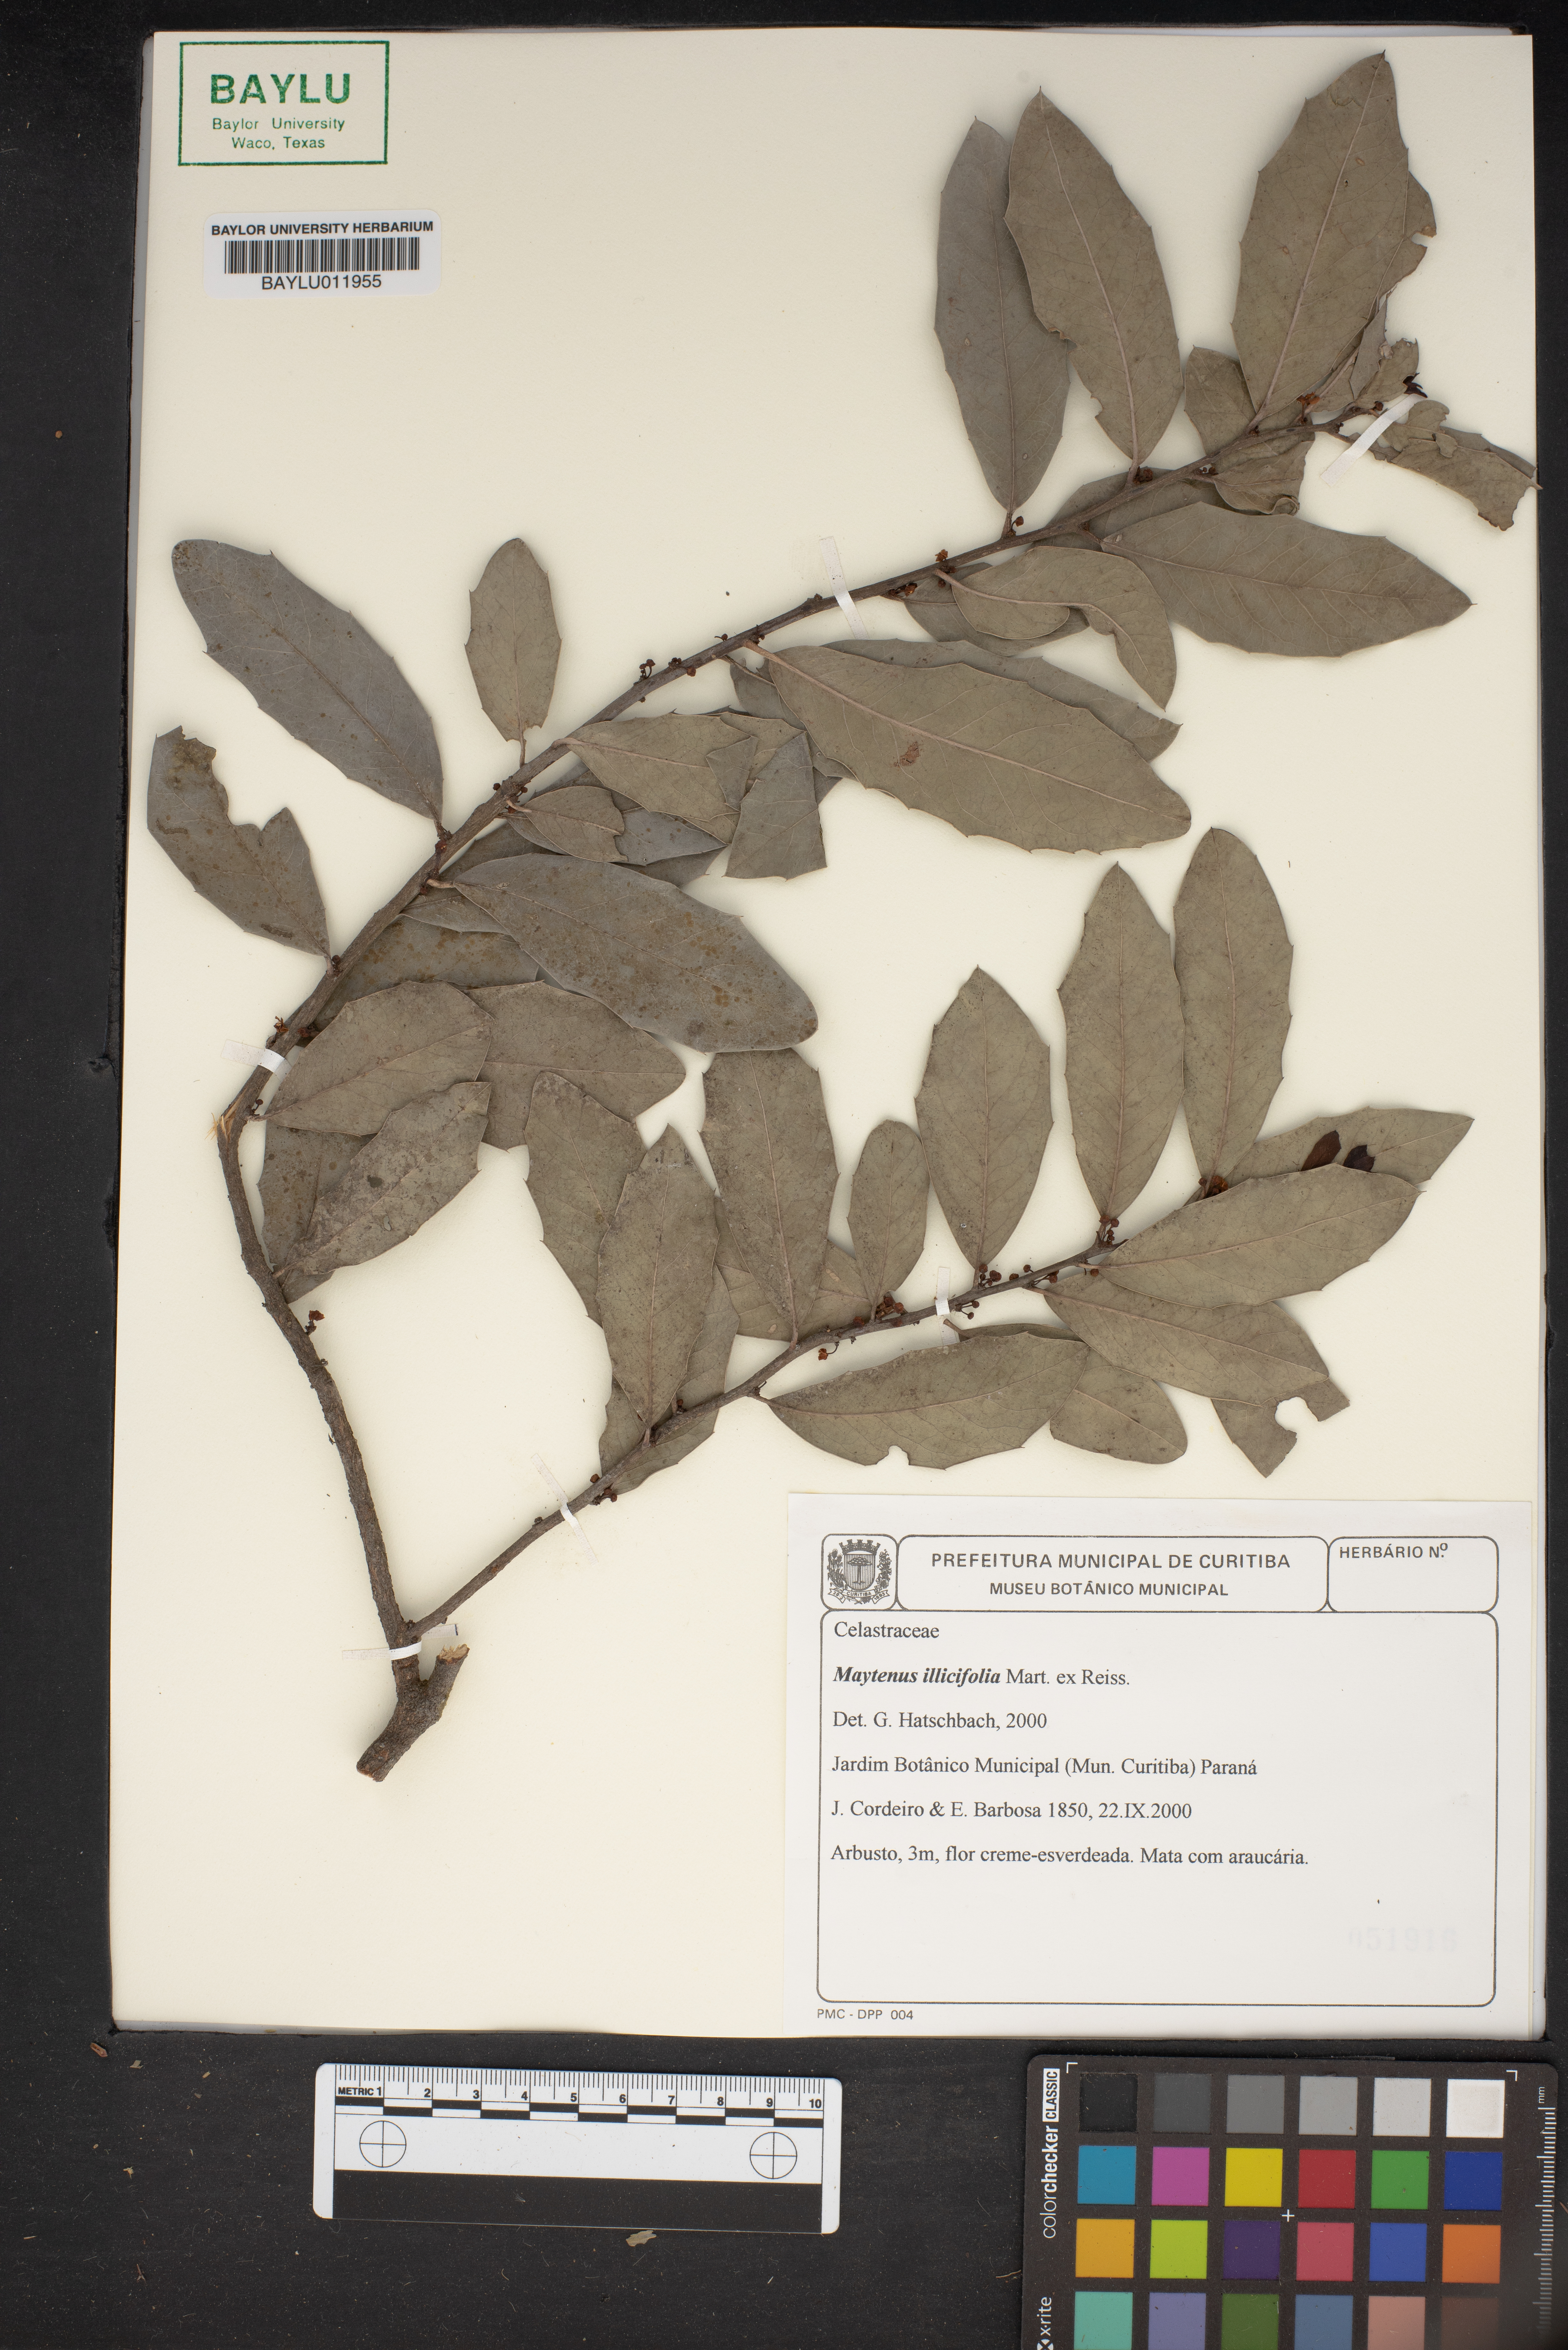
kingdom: Plantae
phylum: Tracheophyta
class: Magnoliopsida
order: Celastrales
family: Celastraceae
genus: Monteverdia
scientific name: Monteverdia ilicifolia
